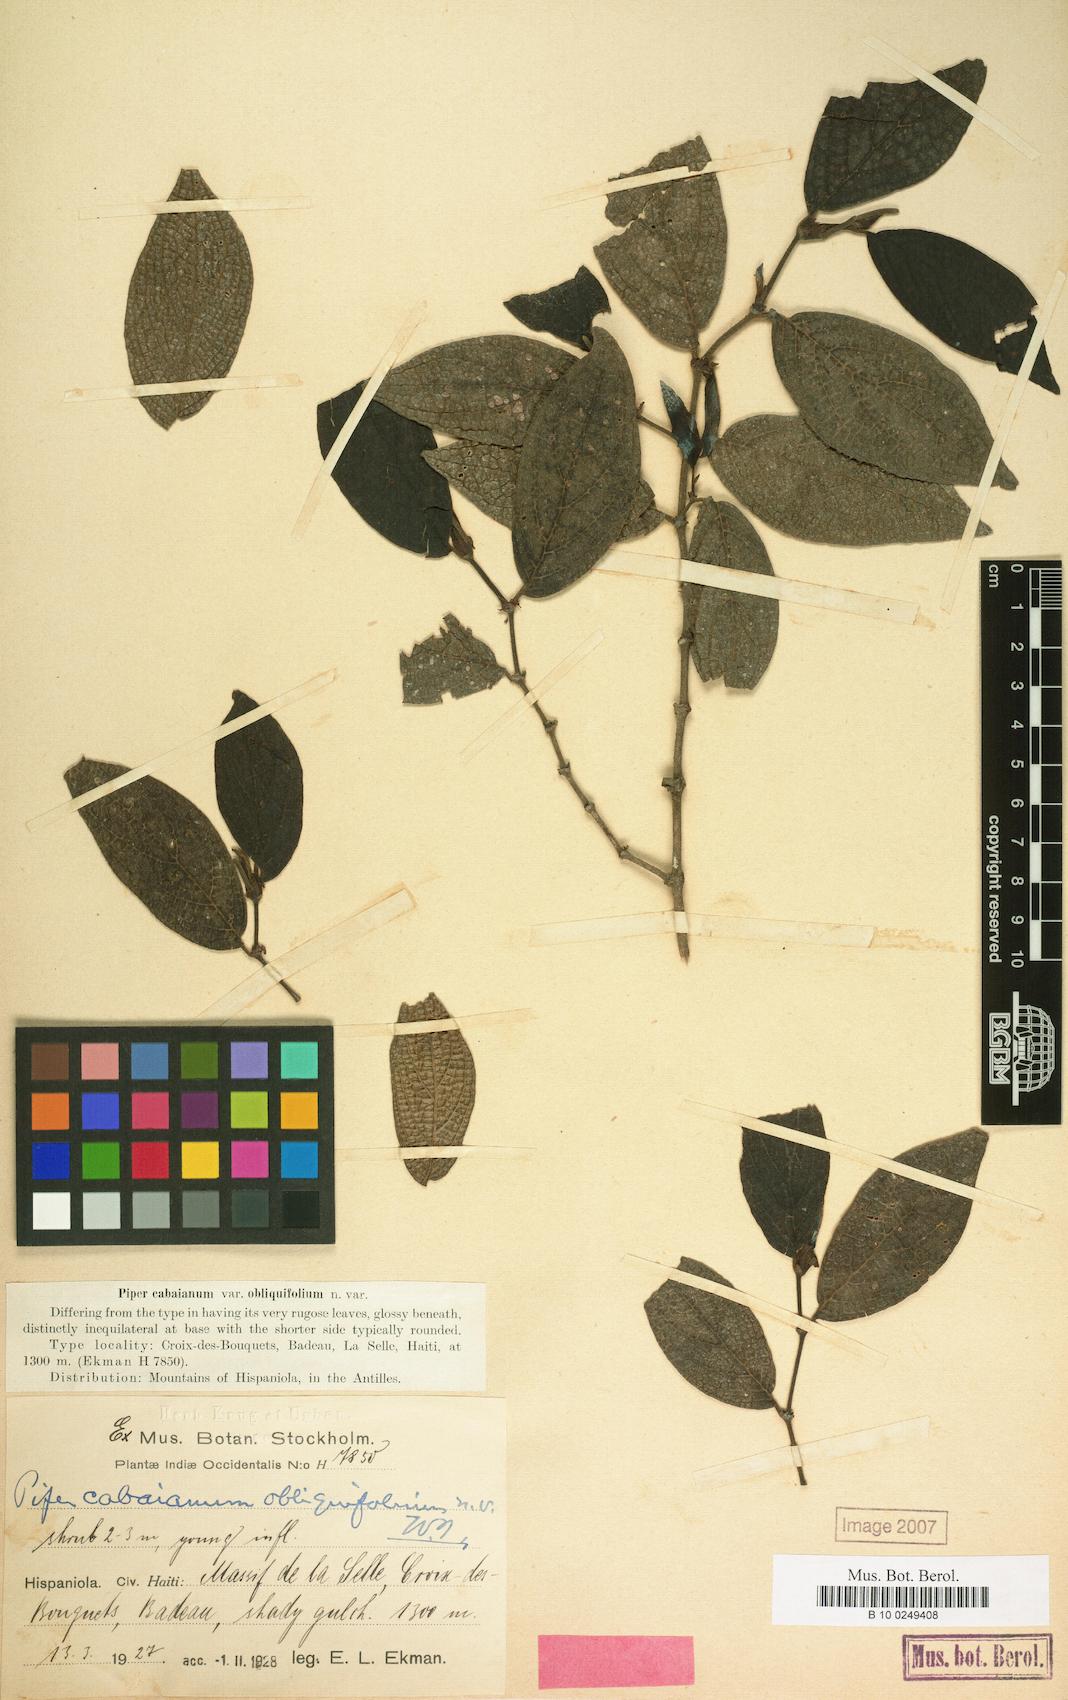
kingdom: Plantae
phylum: Tracheophyta
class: Magnoliopsida
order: Piperales
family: Piperaceae
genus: Piper
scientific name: Piper rugosum
